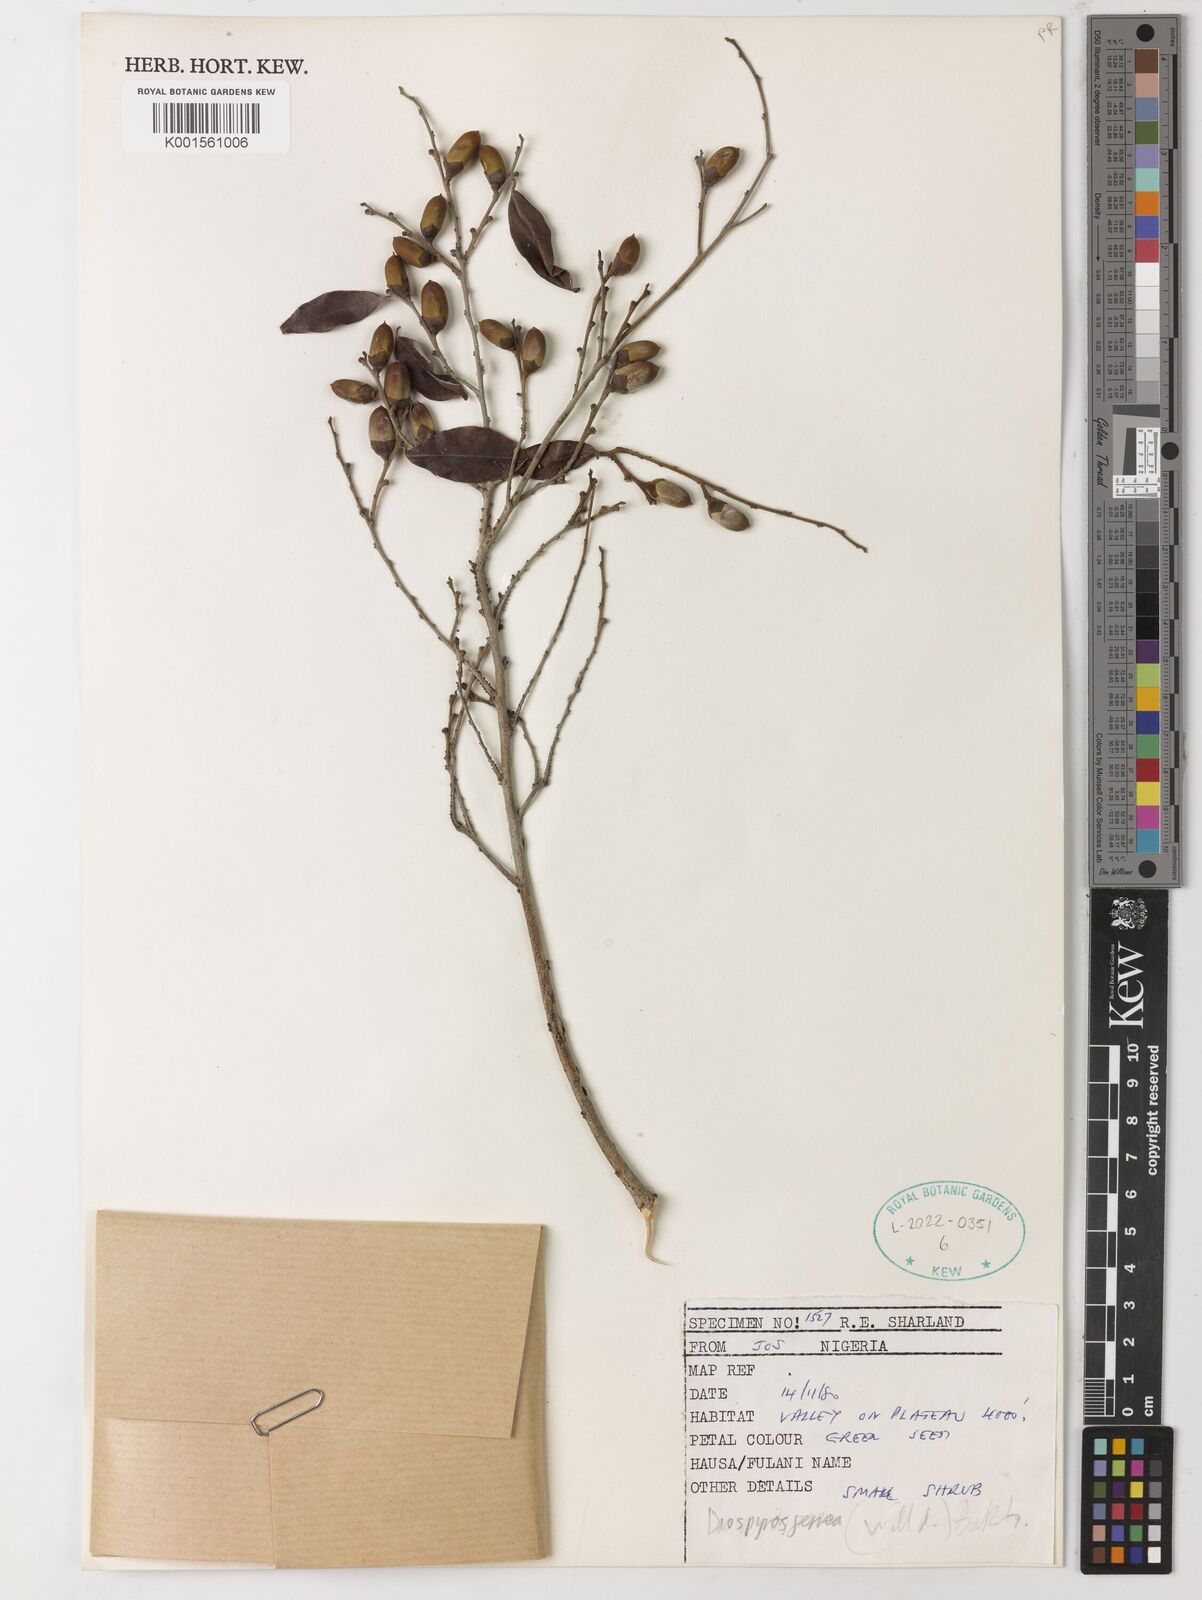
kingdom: Plantae
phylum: Tracheophyta
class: Magnoliopsida
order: Ericales
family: Ebenaceae
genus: Diospyros
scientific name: Diospyros ferrea
